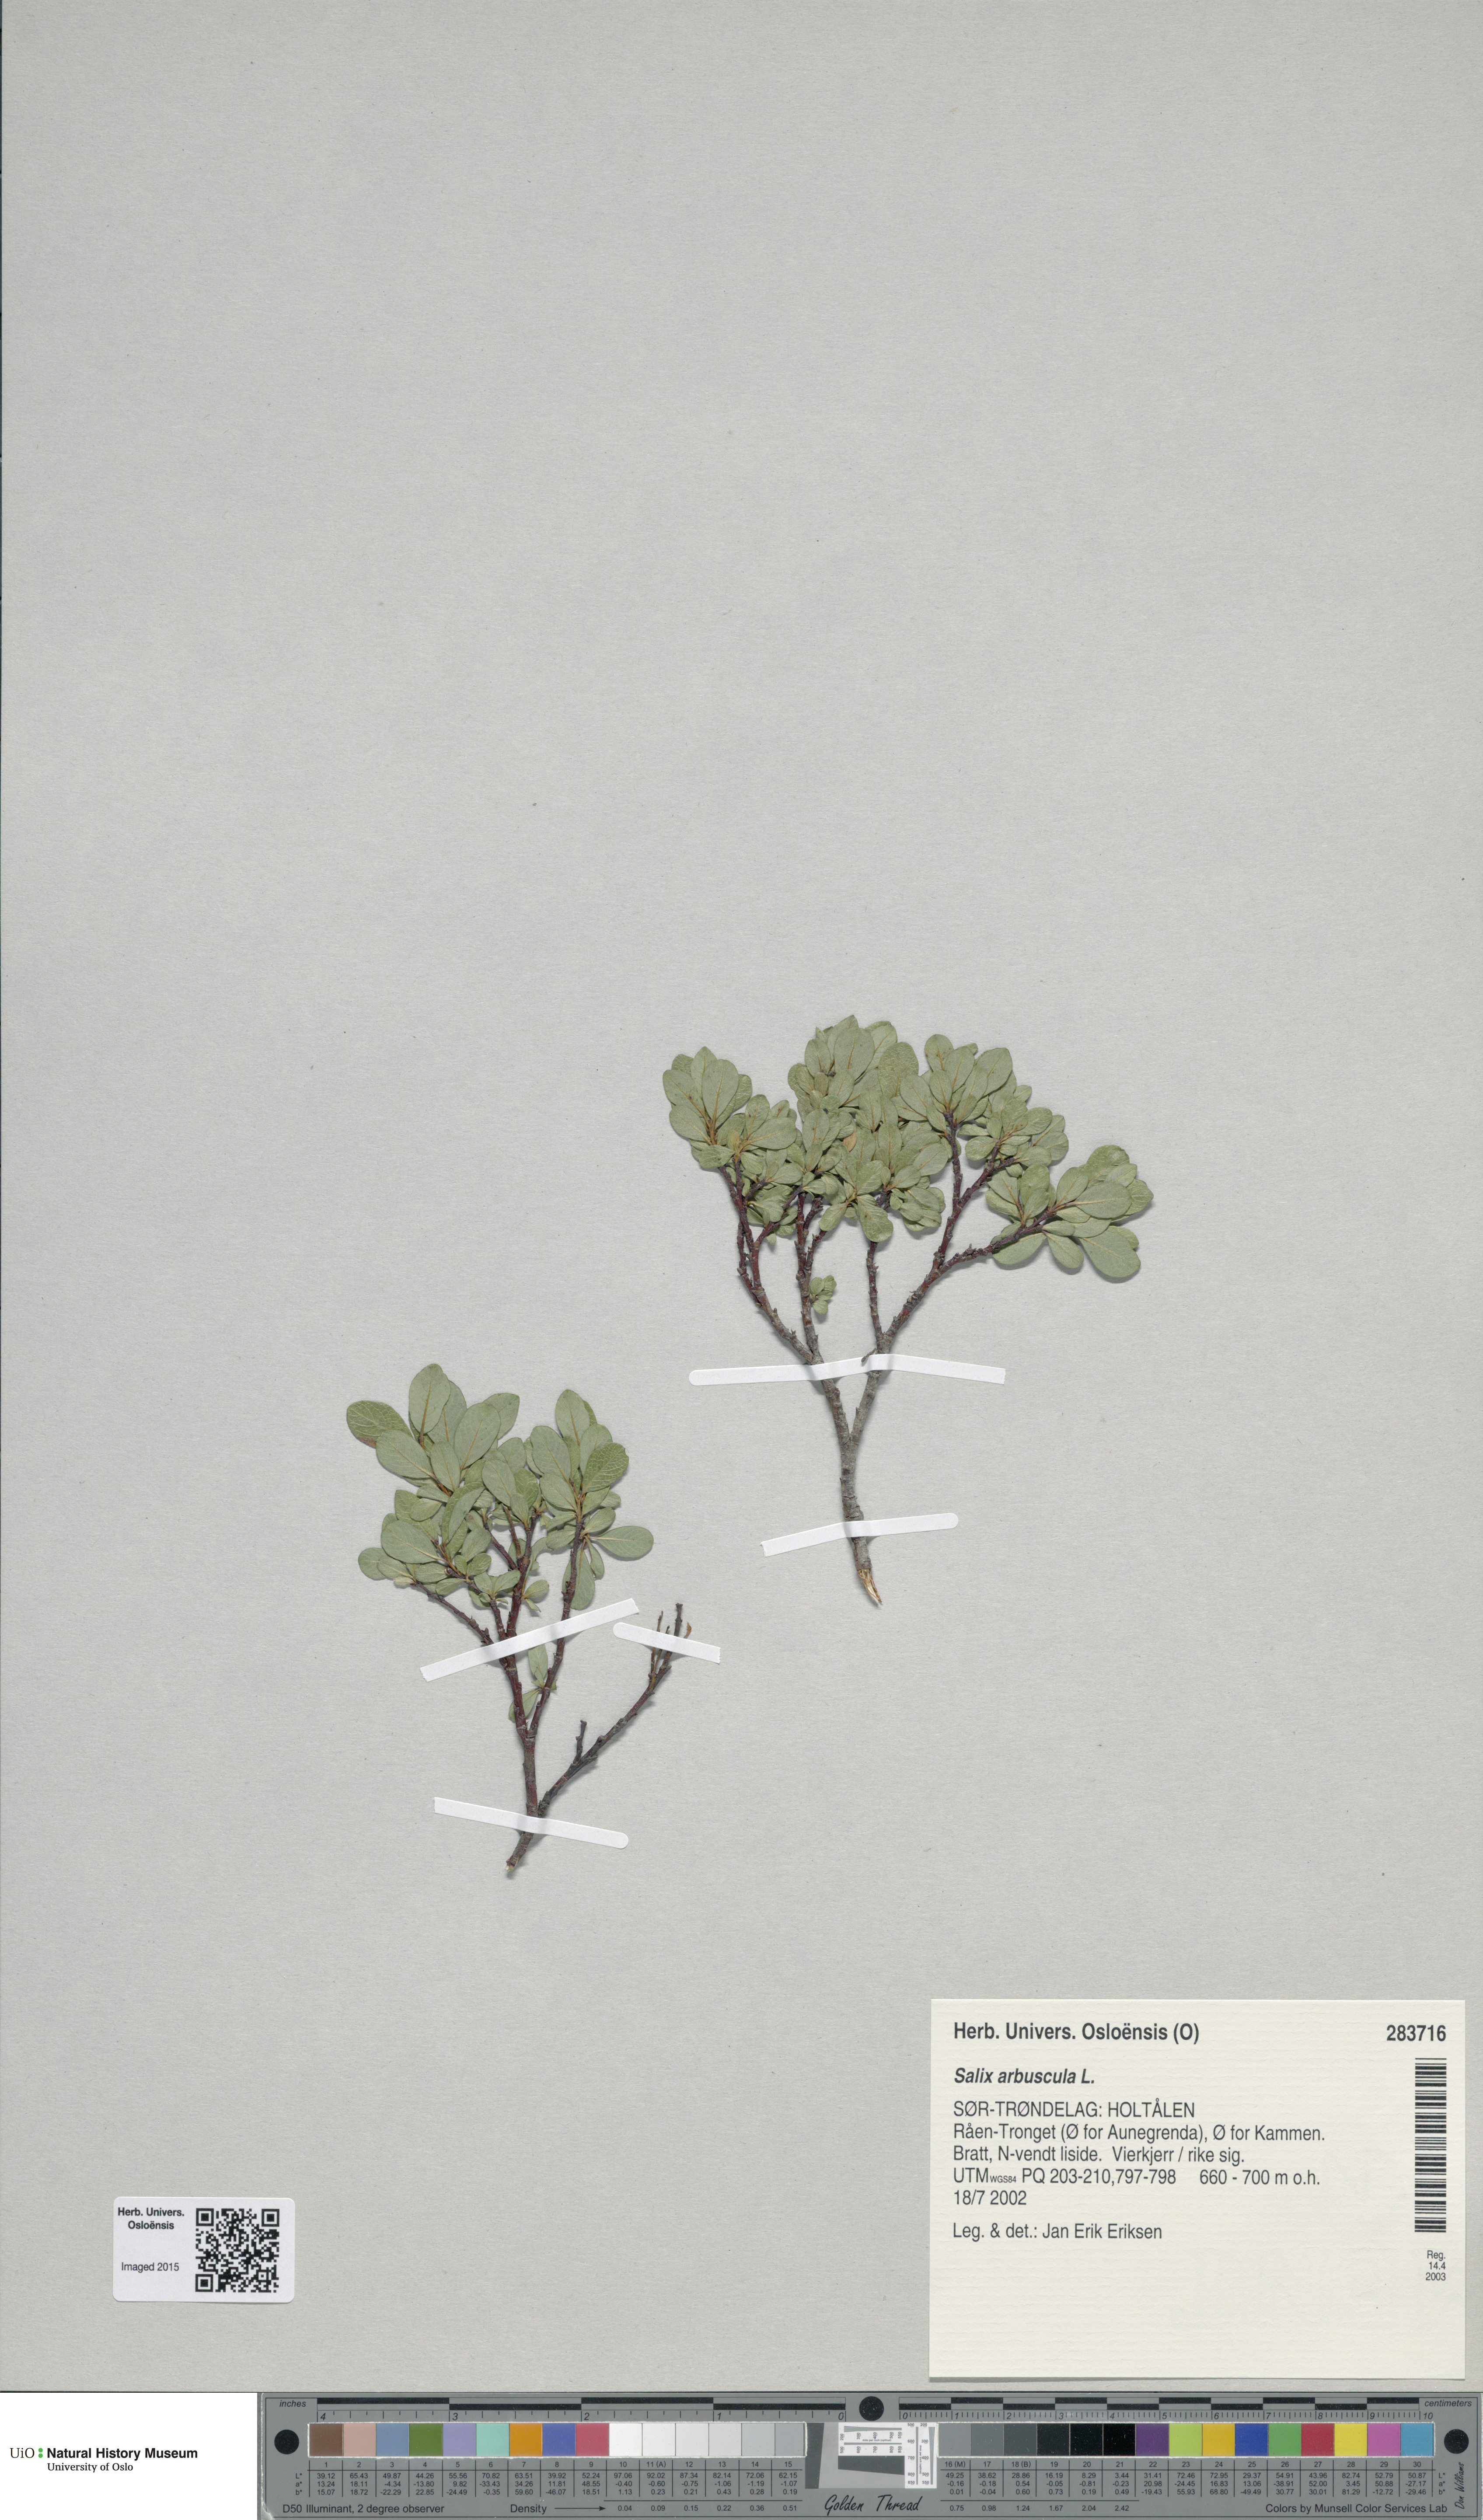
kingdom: Plantae
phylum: Tracheophyta
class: Magnoliopsida
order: Malpighiales
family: Salicaceae
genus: Salix
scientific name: Salix arbuscula
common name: Mountain willow
